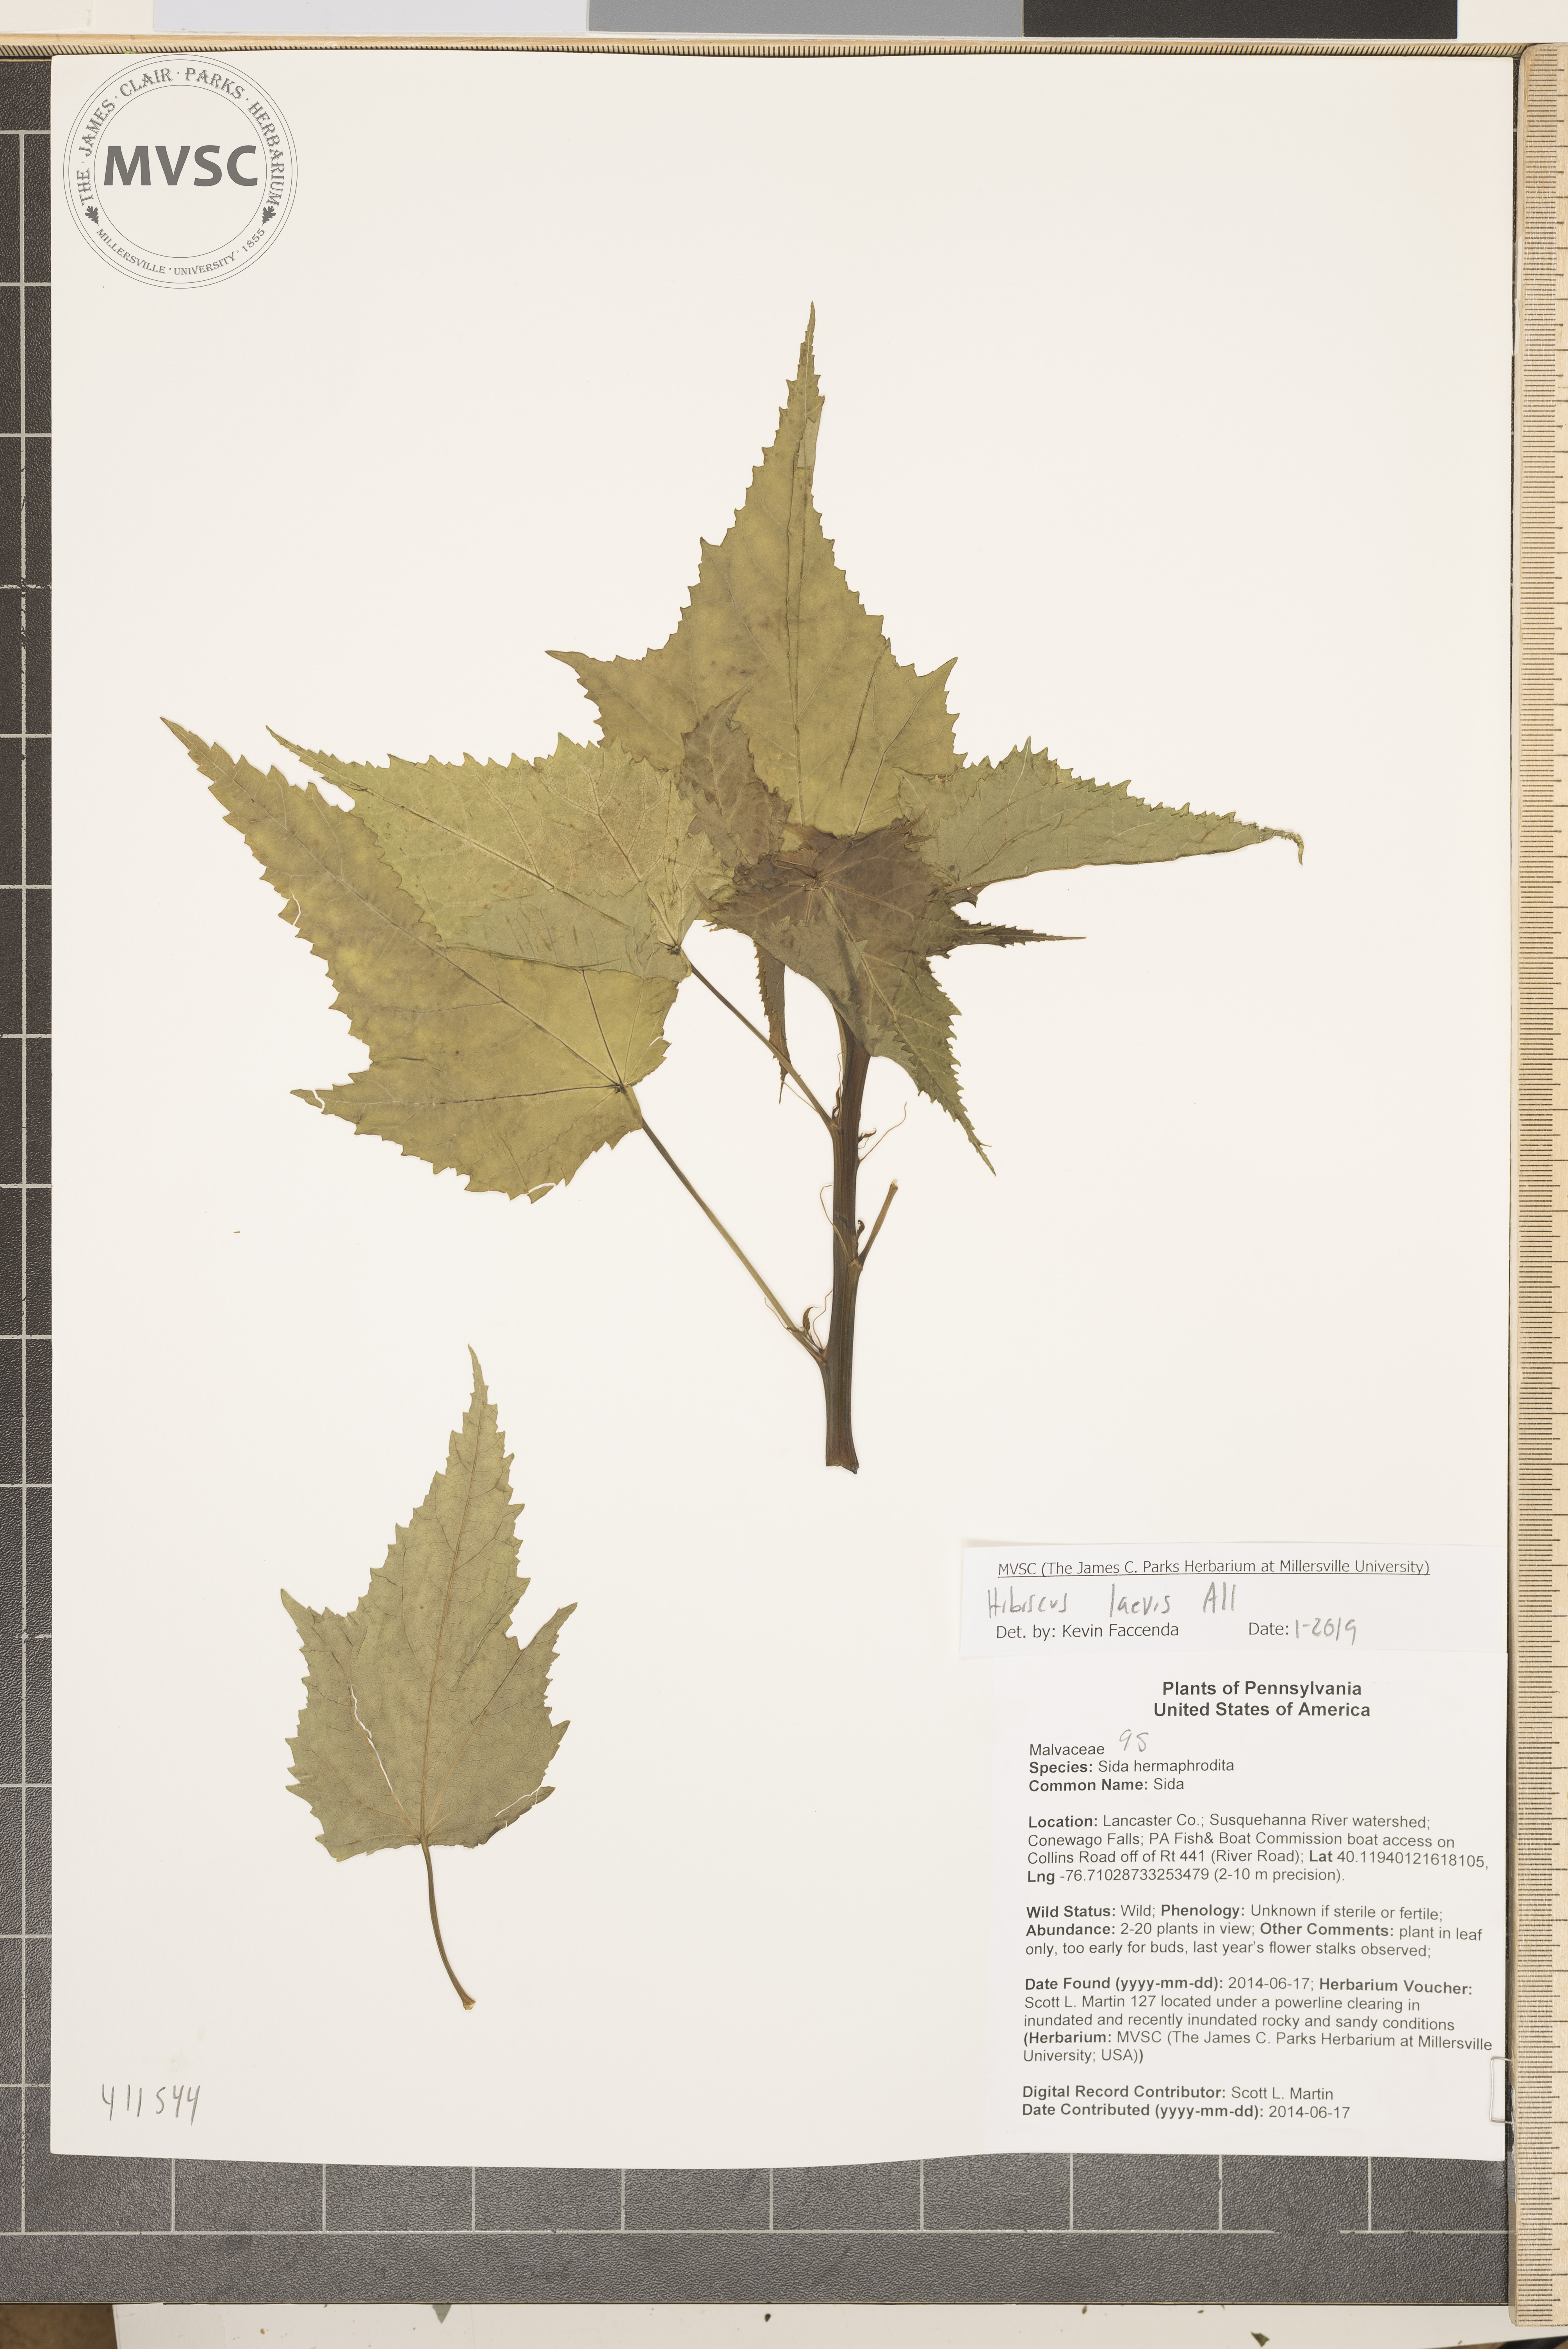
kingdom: Plantae
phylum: Tracheophyta
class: Magnoliopsida
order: Malvales
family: Malvaceae
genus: Hibiscus
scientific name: Hibiscus laevis
